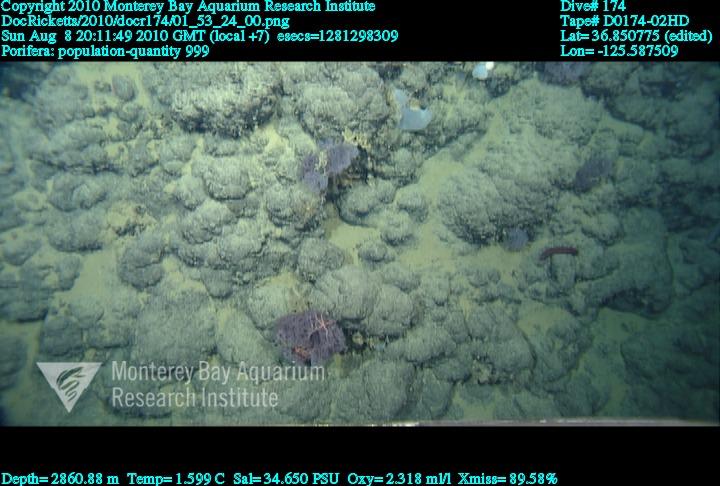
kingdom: Animalia
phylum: Porifera
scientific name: Porifera
